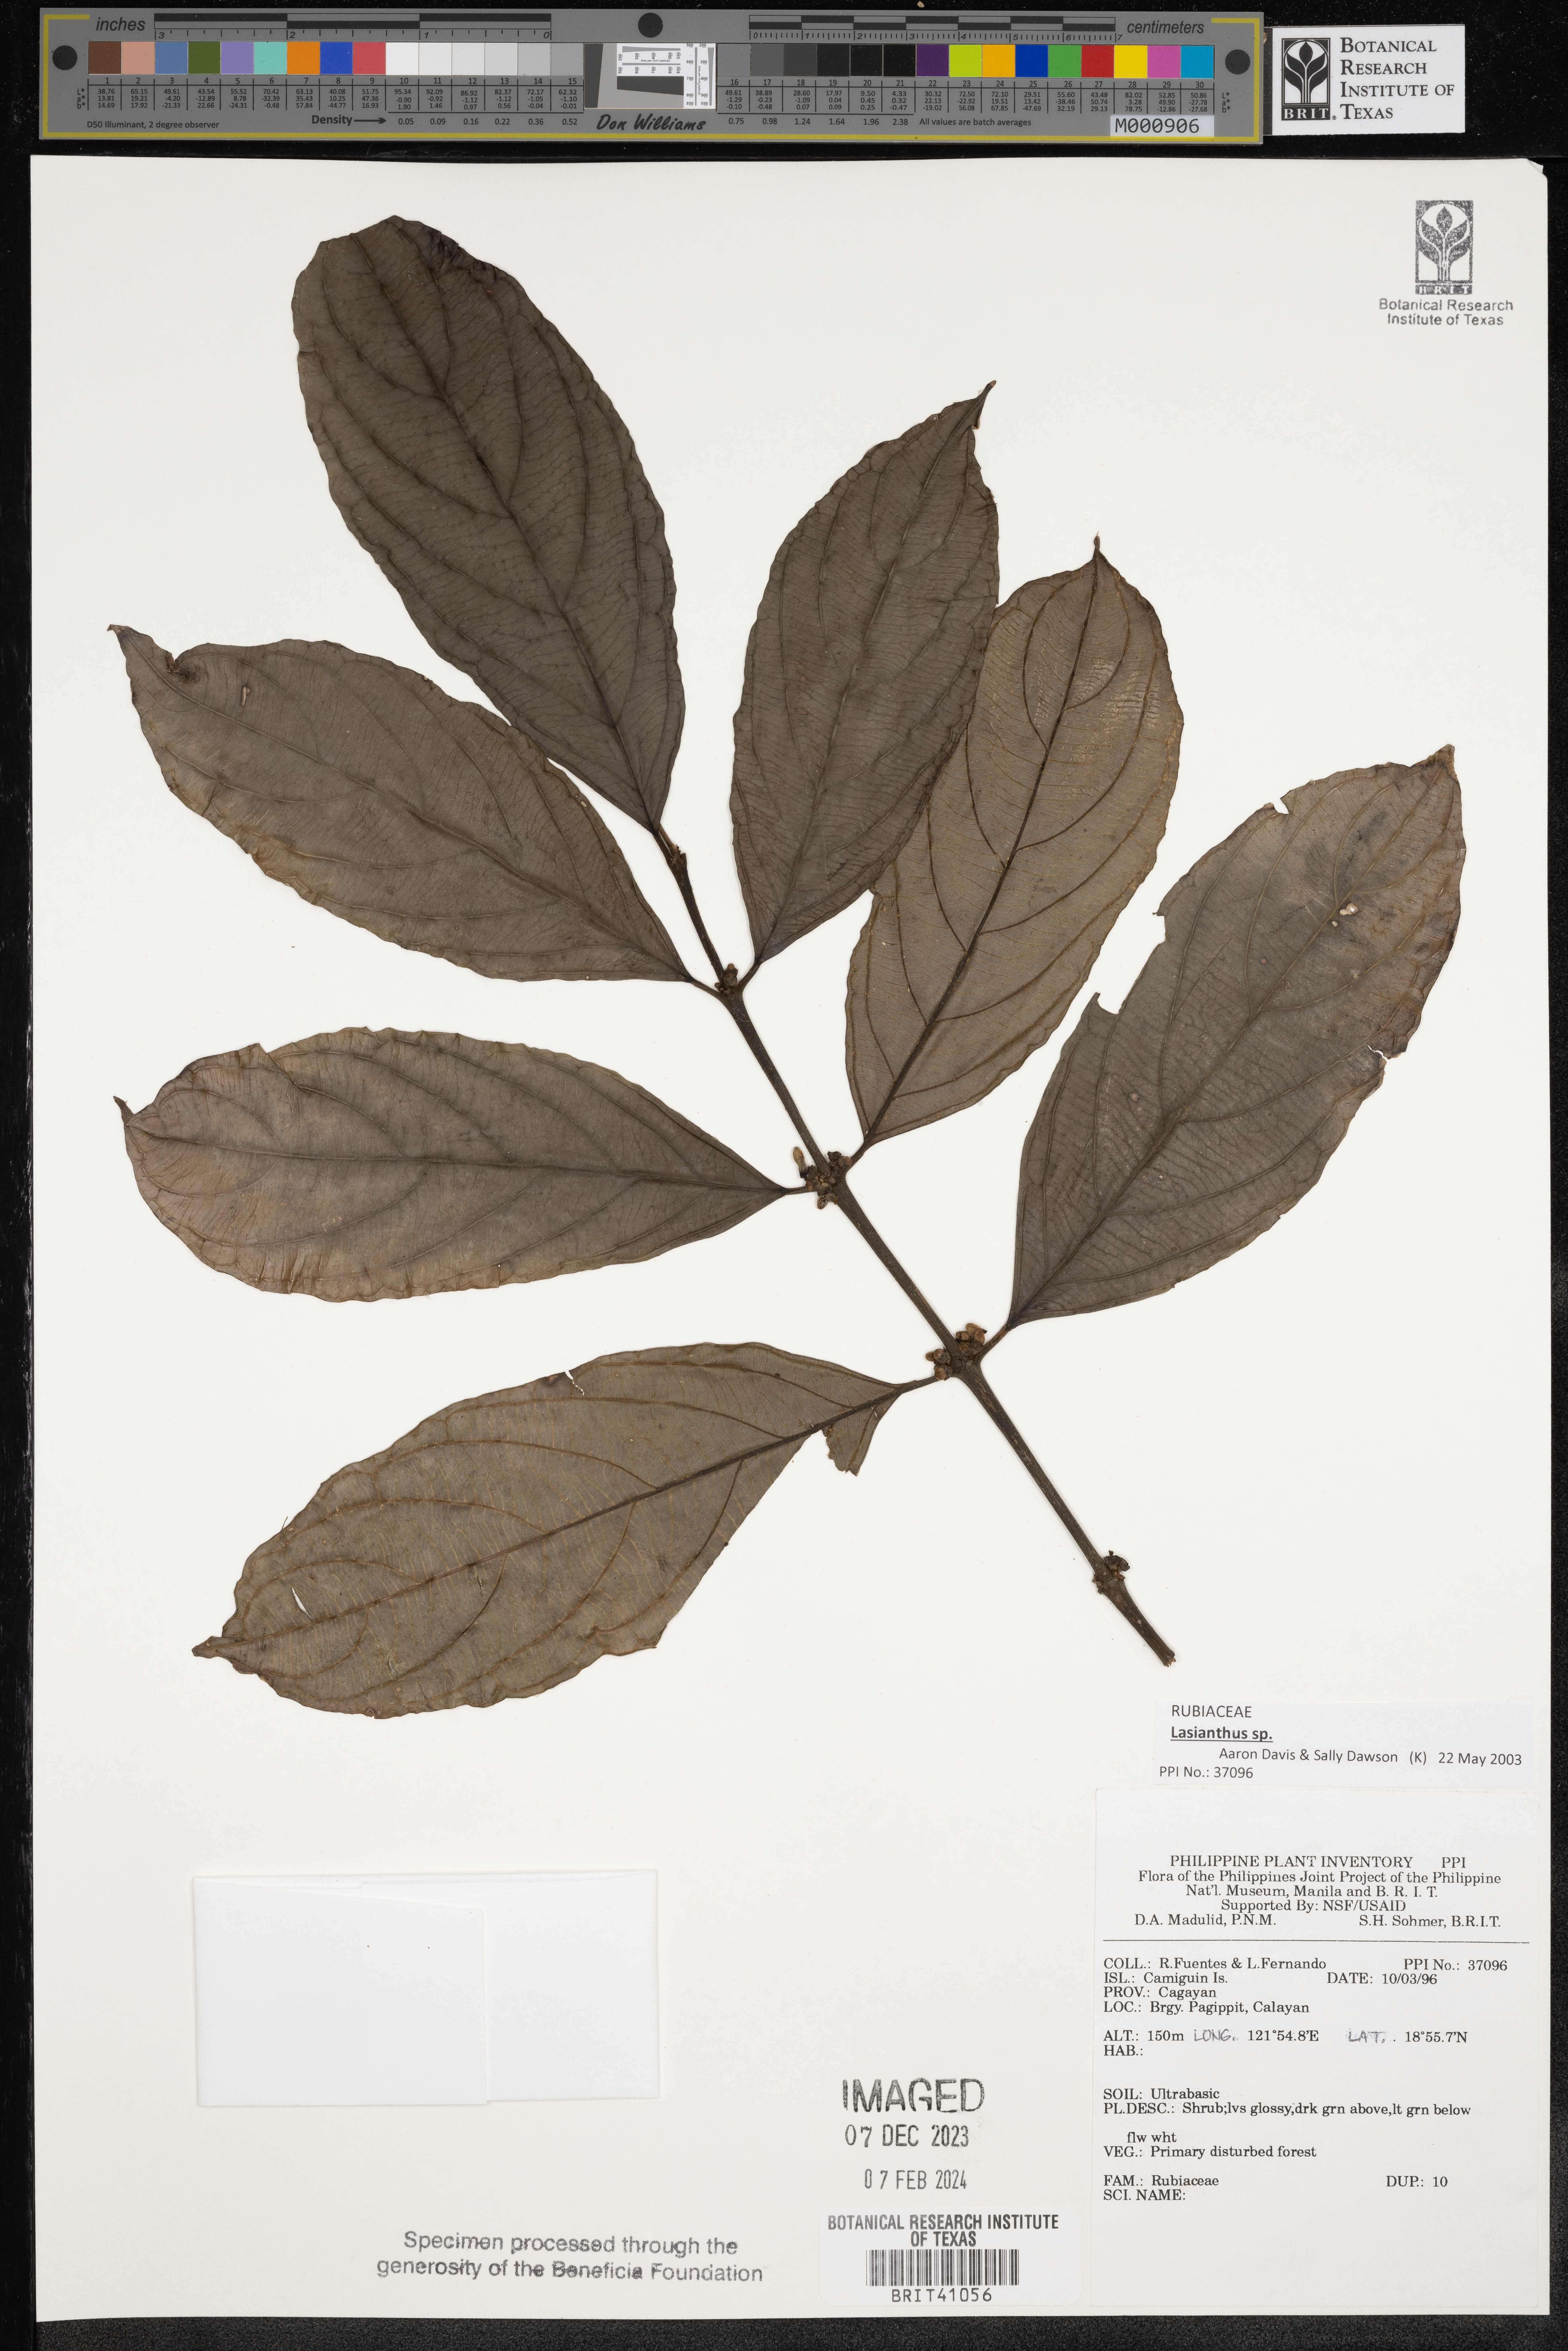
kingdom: Plantae
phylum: Tracheophyta
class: Magnoliopsida
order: Gentianales
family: Rubiaceae
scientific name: Rubiaceae
